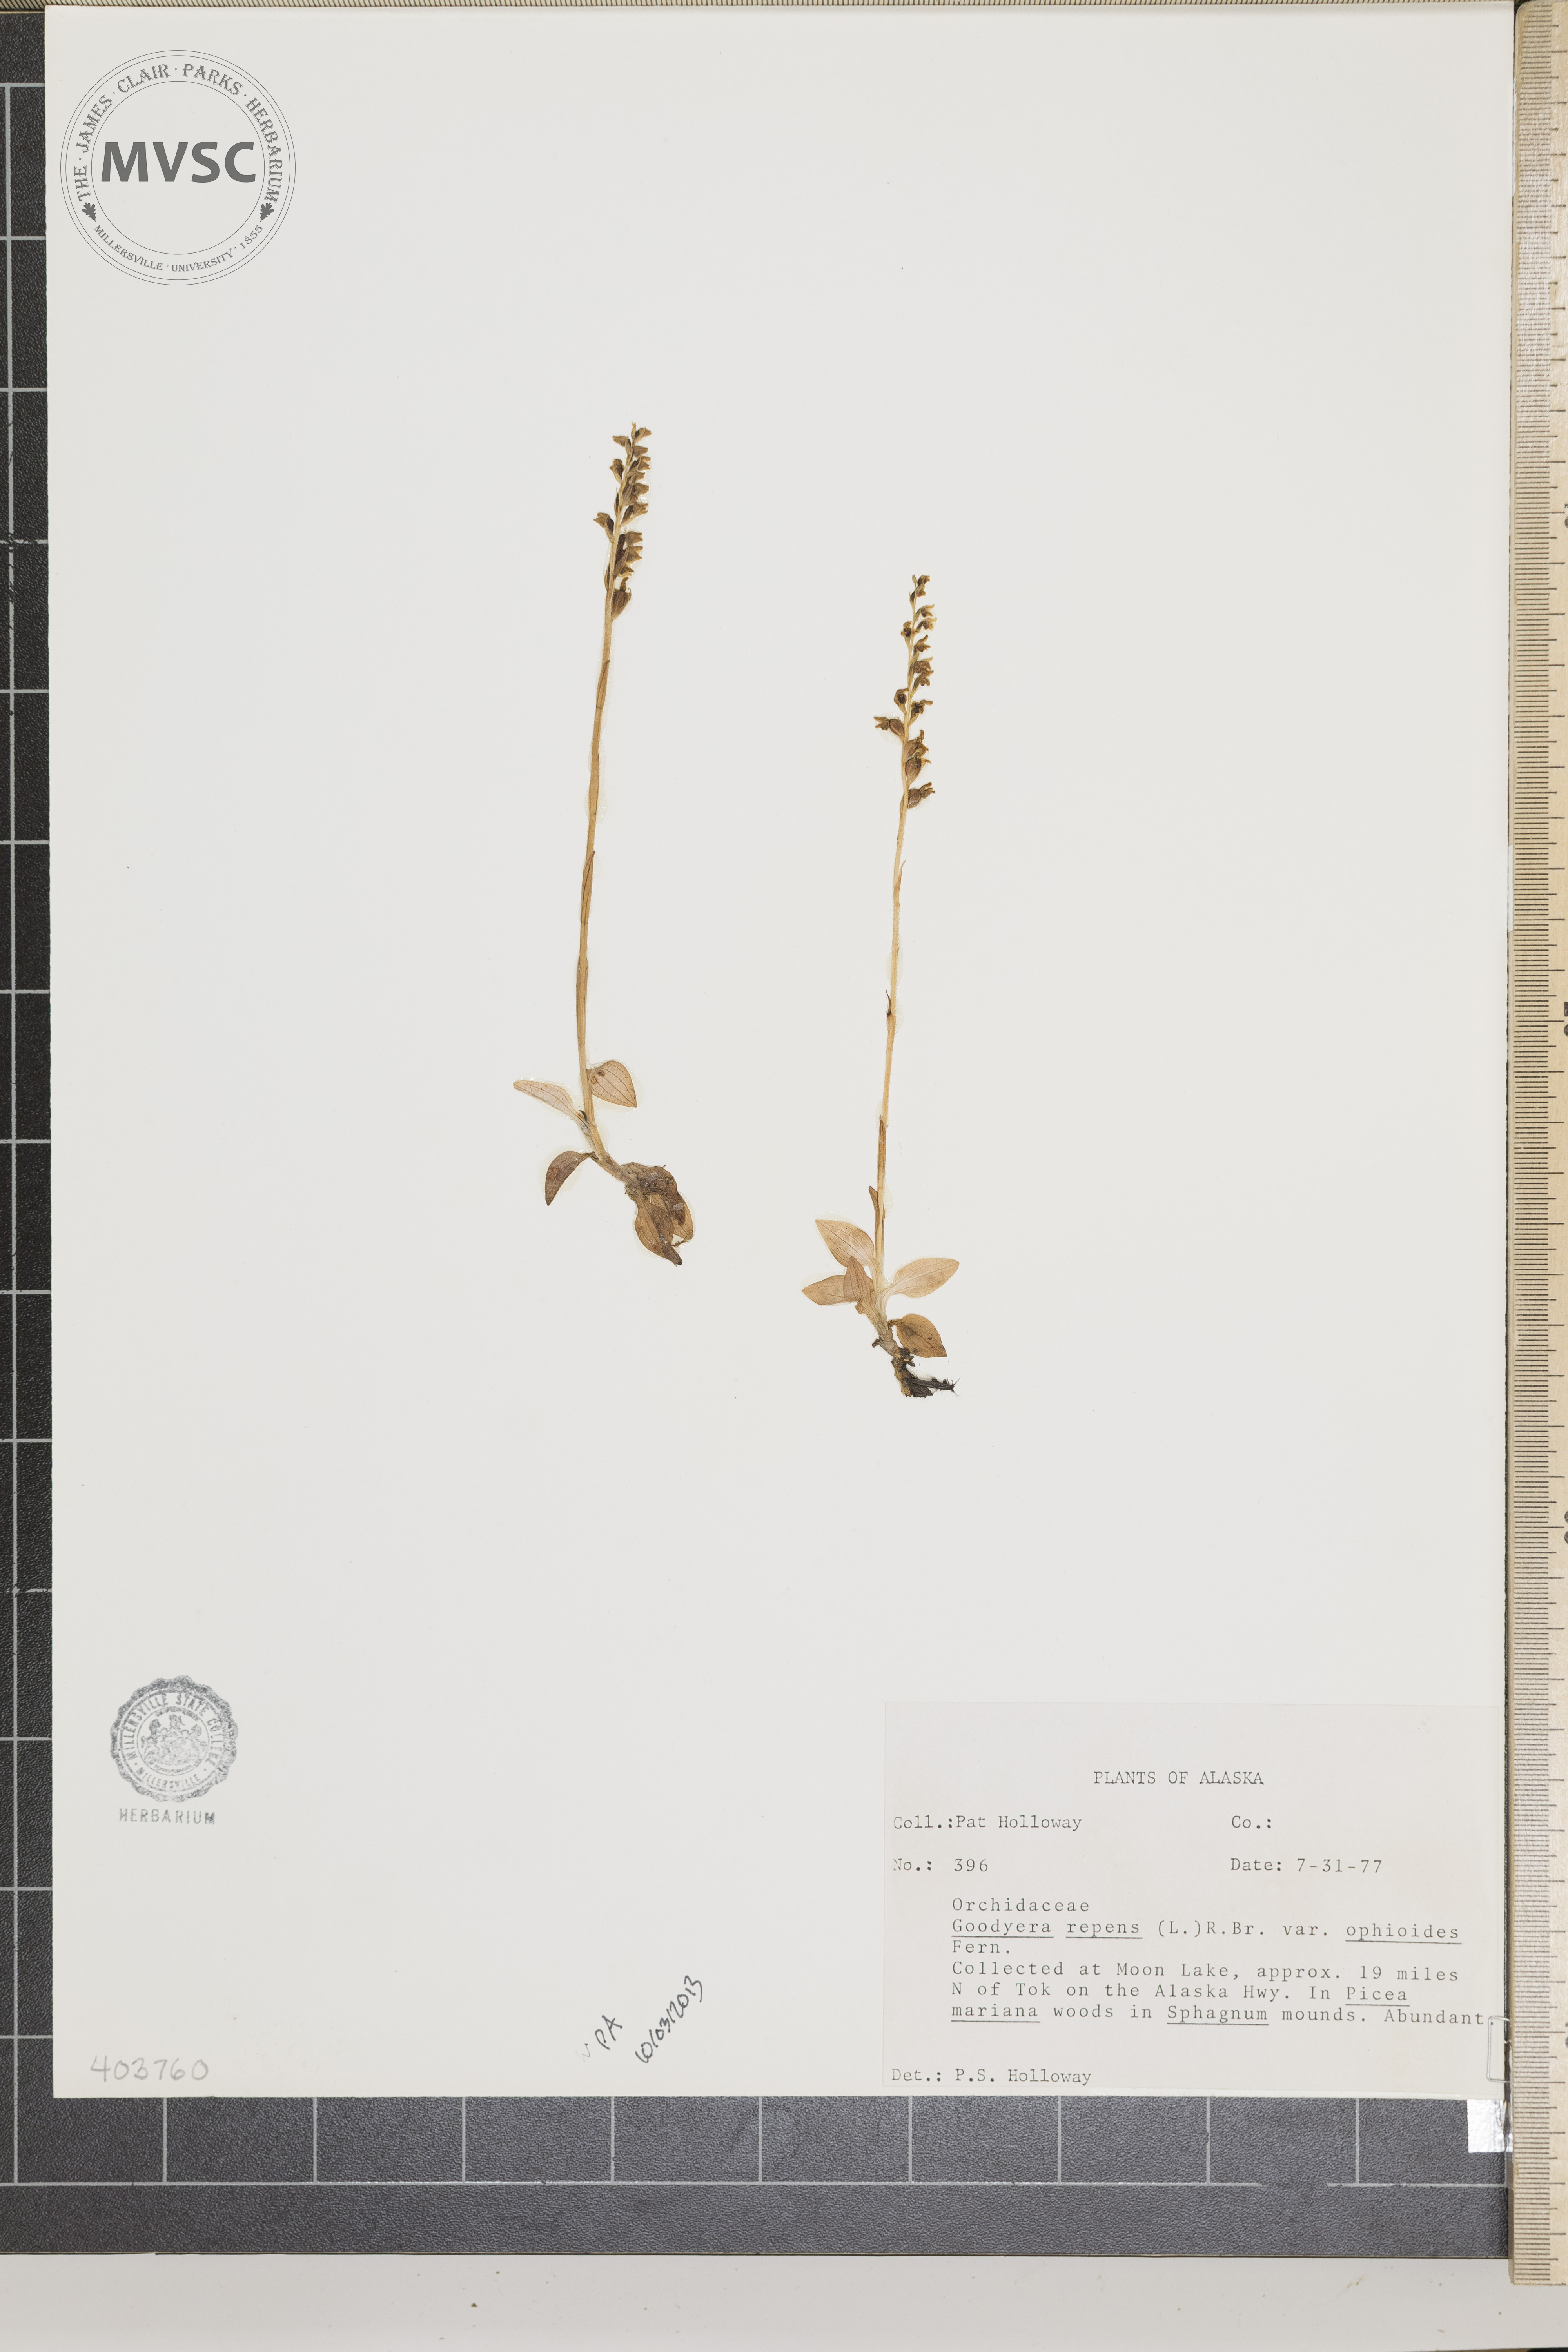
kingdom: Plantae
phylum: Tracheophyta
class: Liliopsida
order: Asparagales
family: Orchidaceae
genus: Goodyera
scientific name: Goodyera repens
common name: Creeping lady's-tresses
